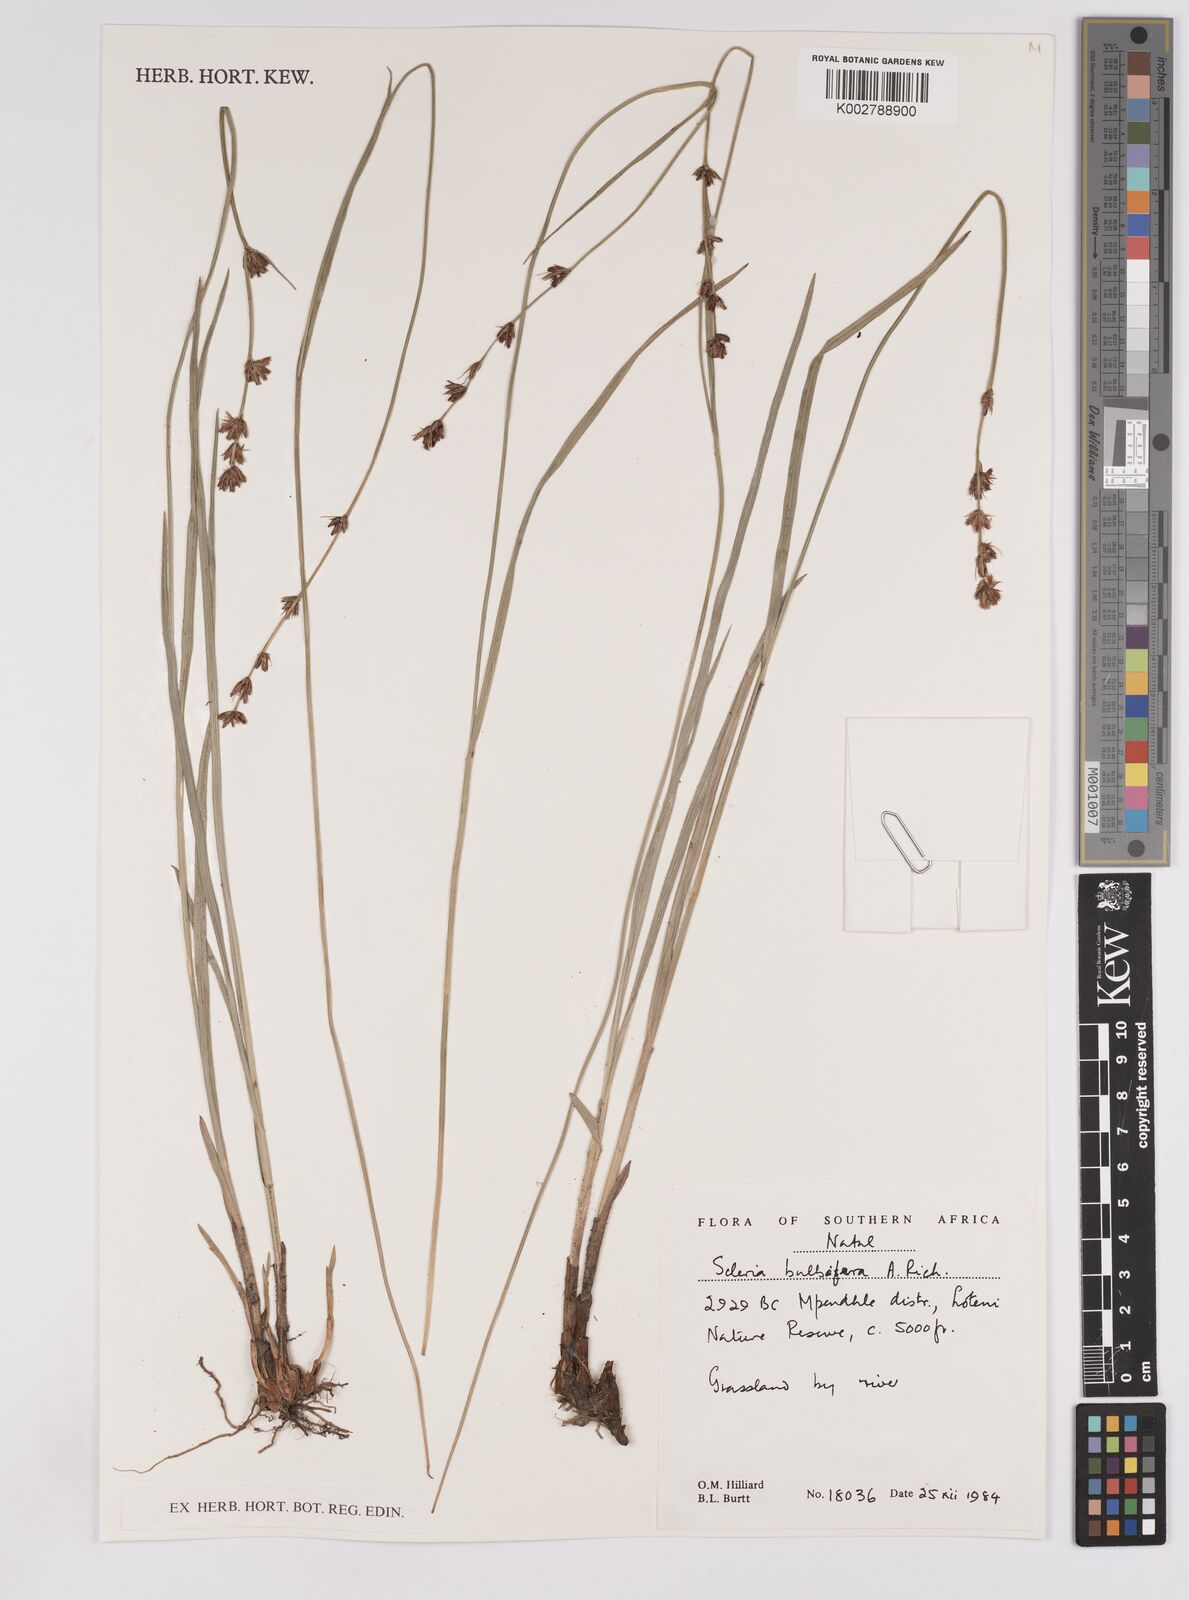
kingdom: Plantae
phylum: Tracheophyta
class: Liliopsida
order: Poales
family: Cyperaceae
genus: Scleria
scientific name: Scleria bulbifera
